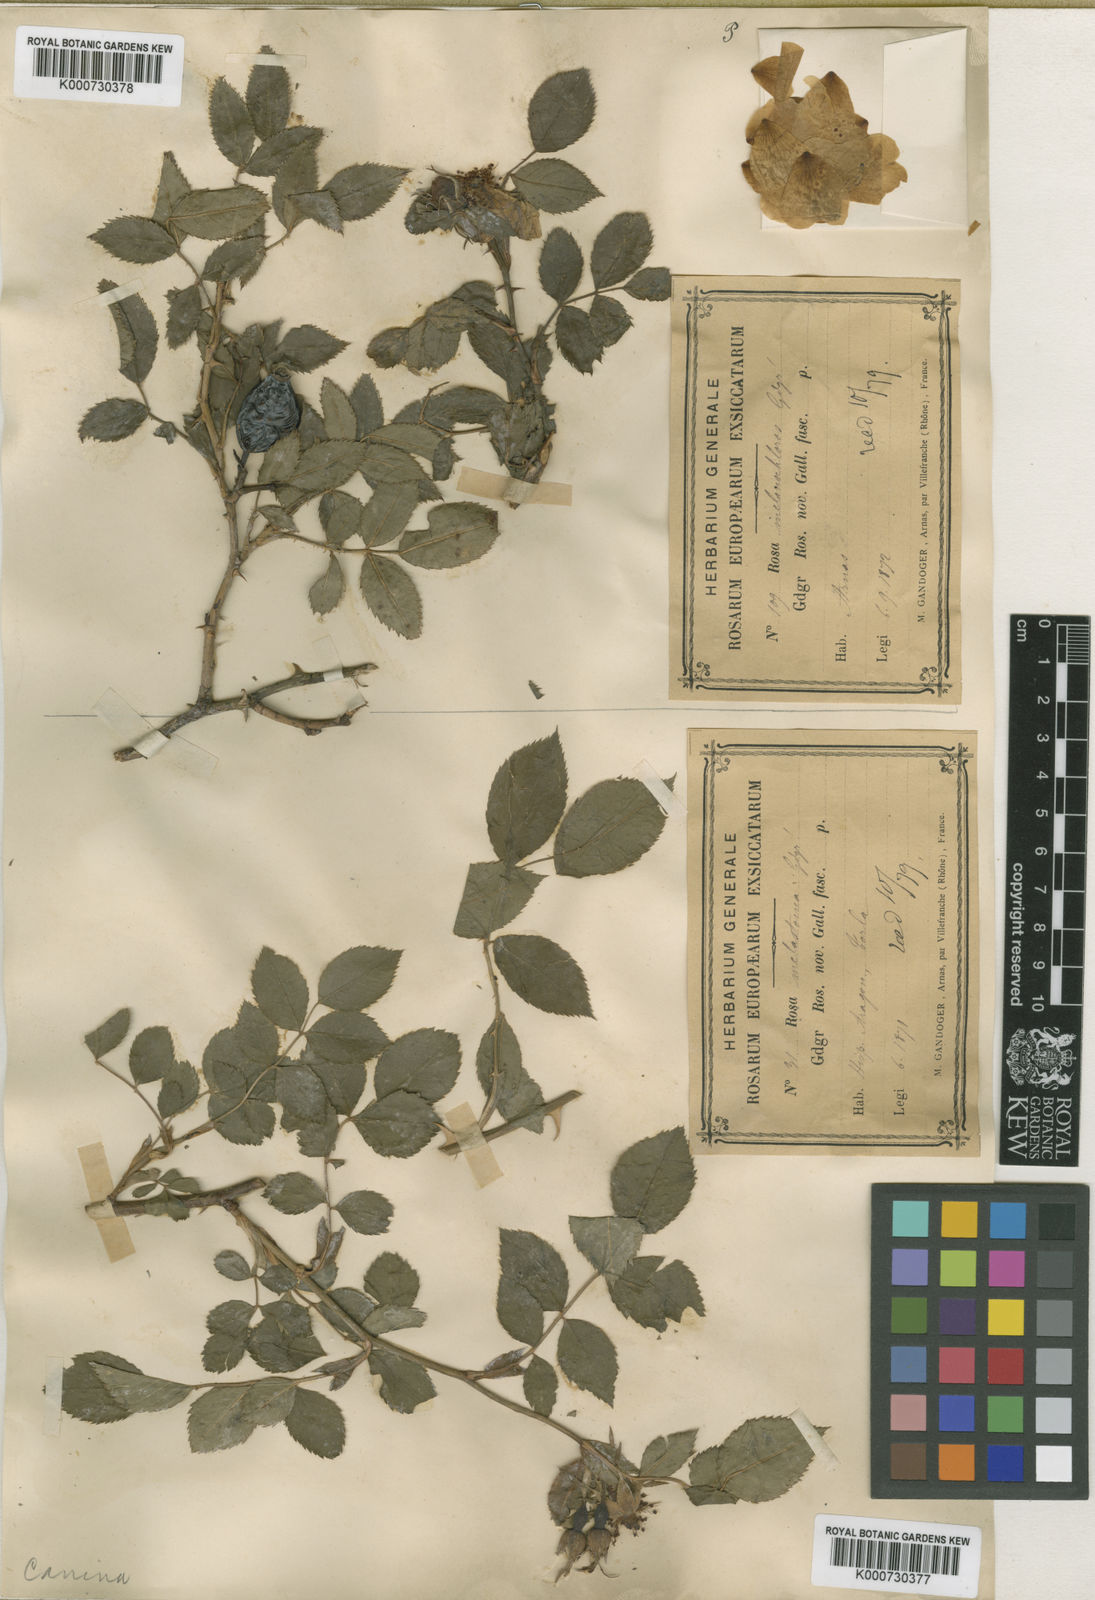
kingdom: Plantae
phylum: Tracheophyta
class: Magnoliopsida
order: Rosales
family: Rosaceae
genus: Rosa
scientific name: Rosa canina
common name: Dog rose
